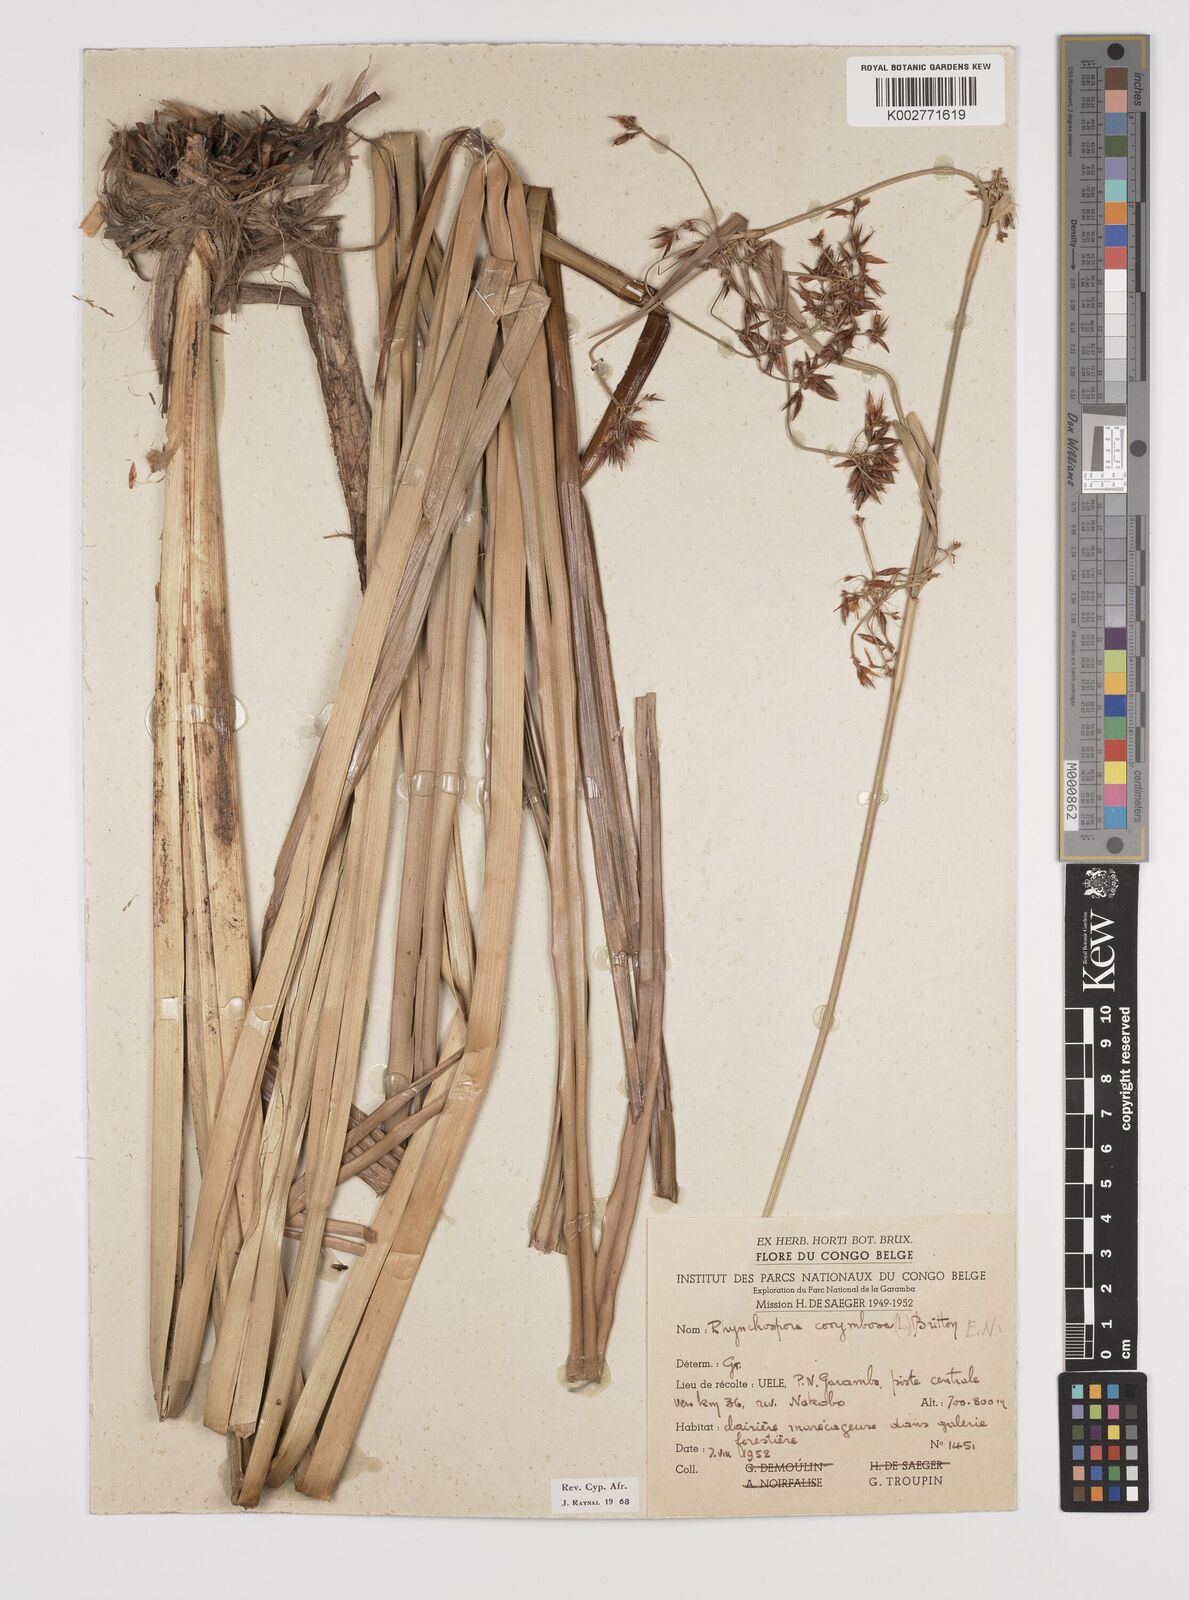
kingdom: Plantae
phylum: Tracheophyta
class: Liliopsida
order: Poales
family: Cyperaceae
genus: Rhynchospora
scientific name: Rhynchospora corymbosa
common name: Golden beak sedge
